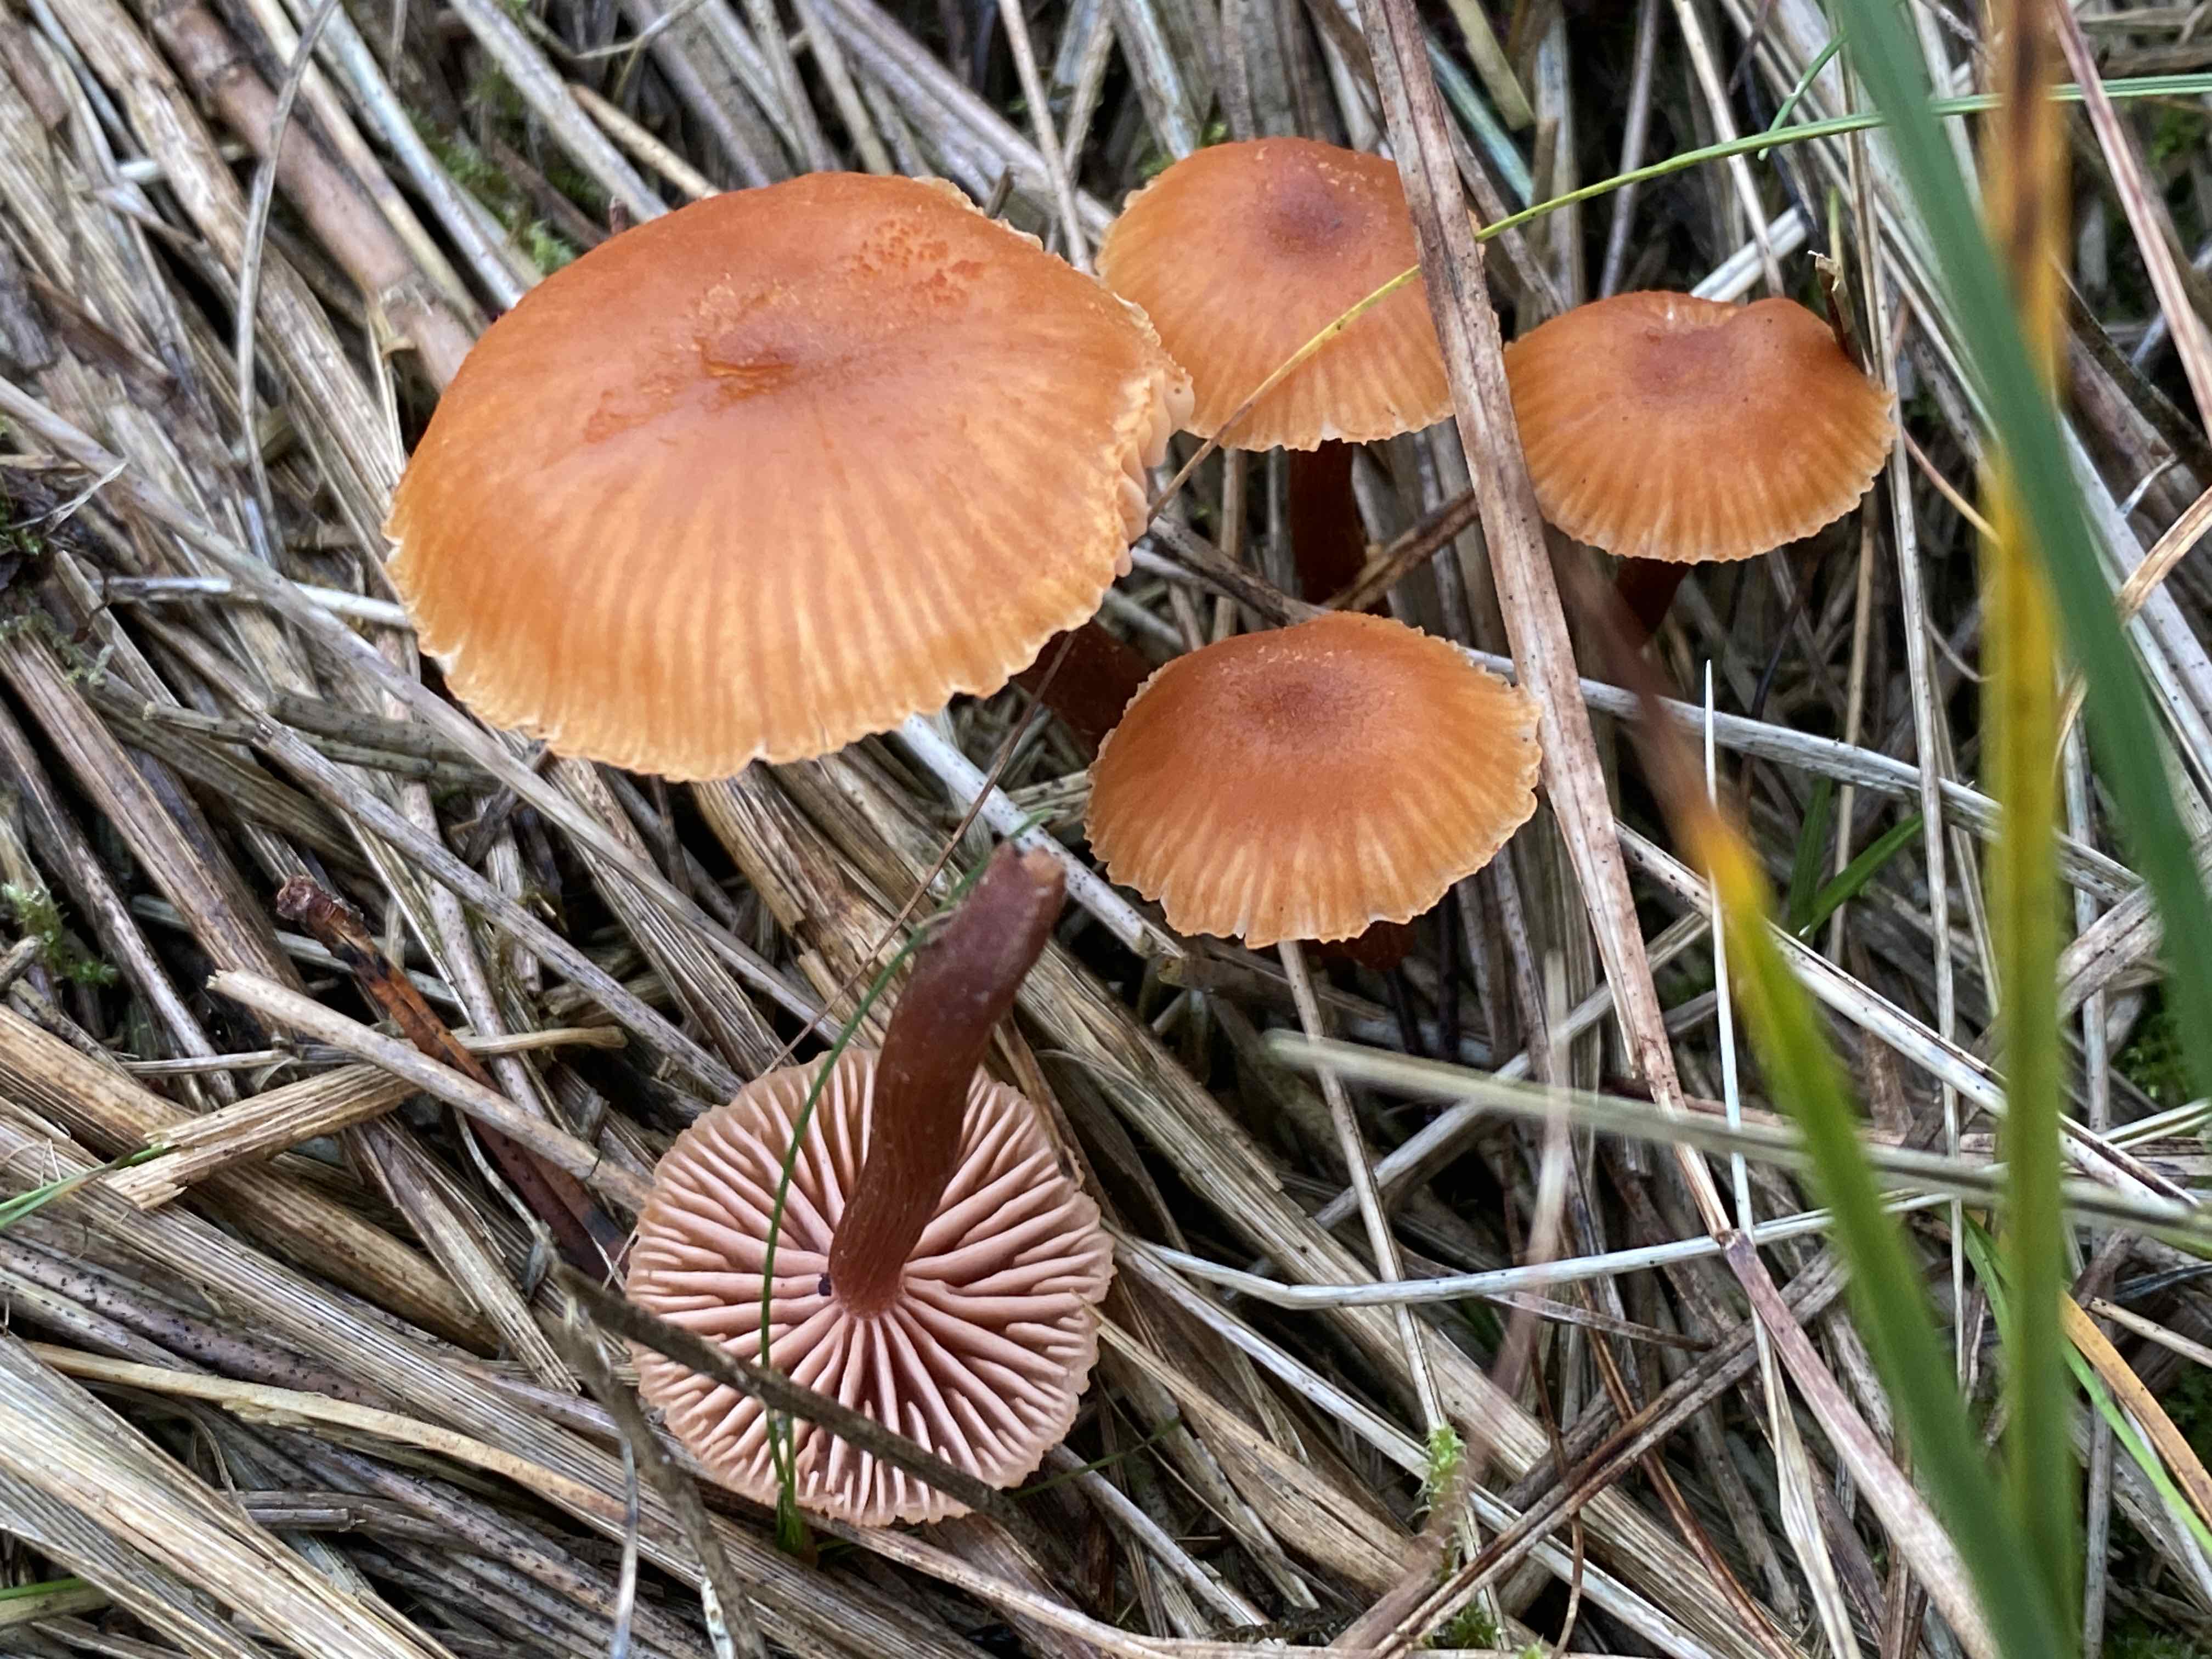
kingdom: Fungi
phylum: Basidiomycota
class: Agaricomycetes
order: Agaricales
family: Hydnangiaceae
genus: Laccaria
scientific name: Laccaria
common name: ametysthat
